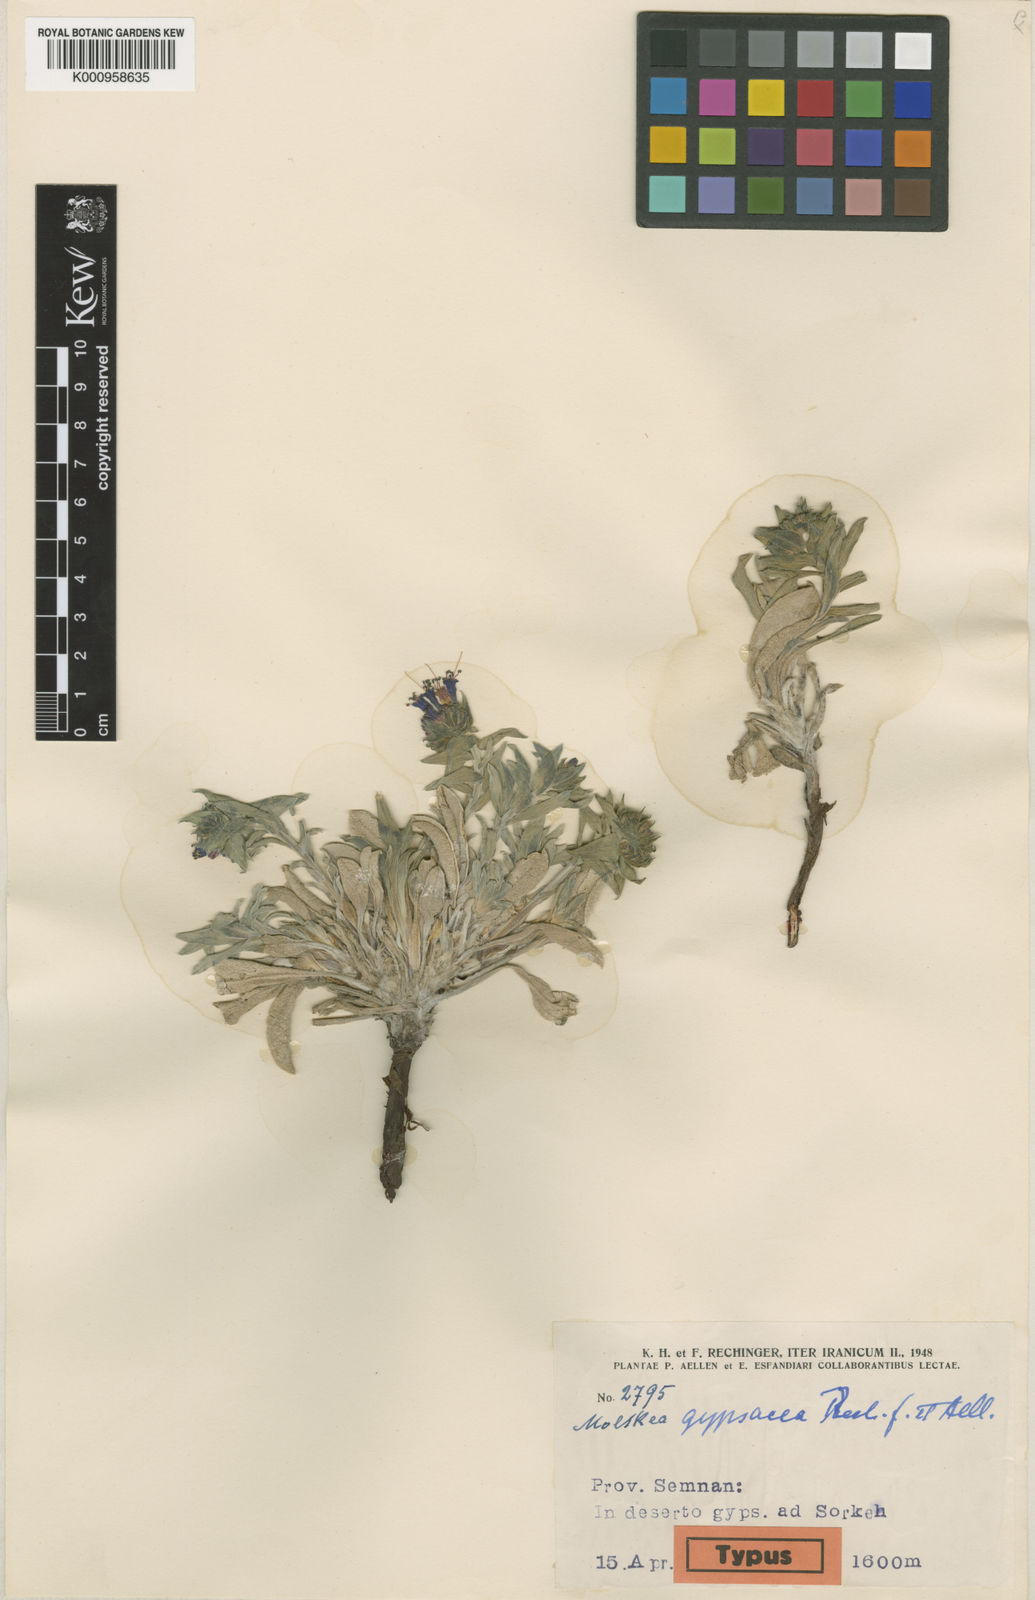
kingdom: Plantae
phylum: Tracheophyta
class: Magnoliopsida
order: Boraginales
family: Boraginaceae
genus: Moltkia
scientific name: Moltkia gypsacea
